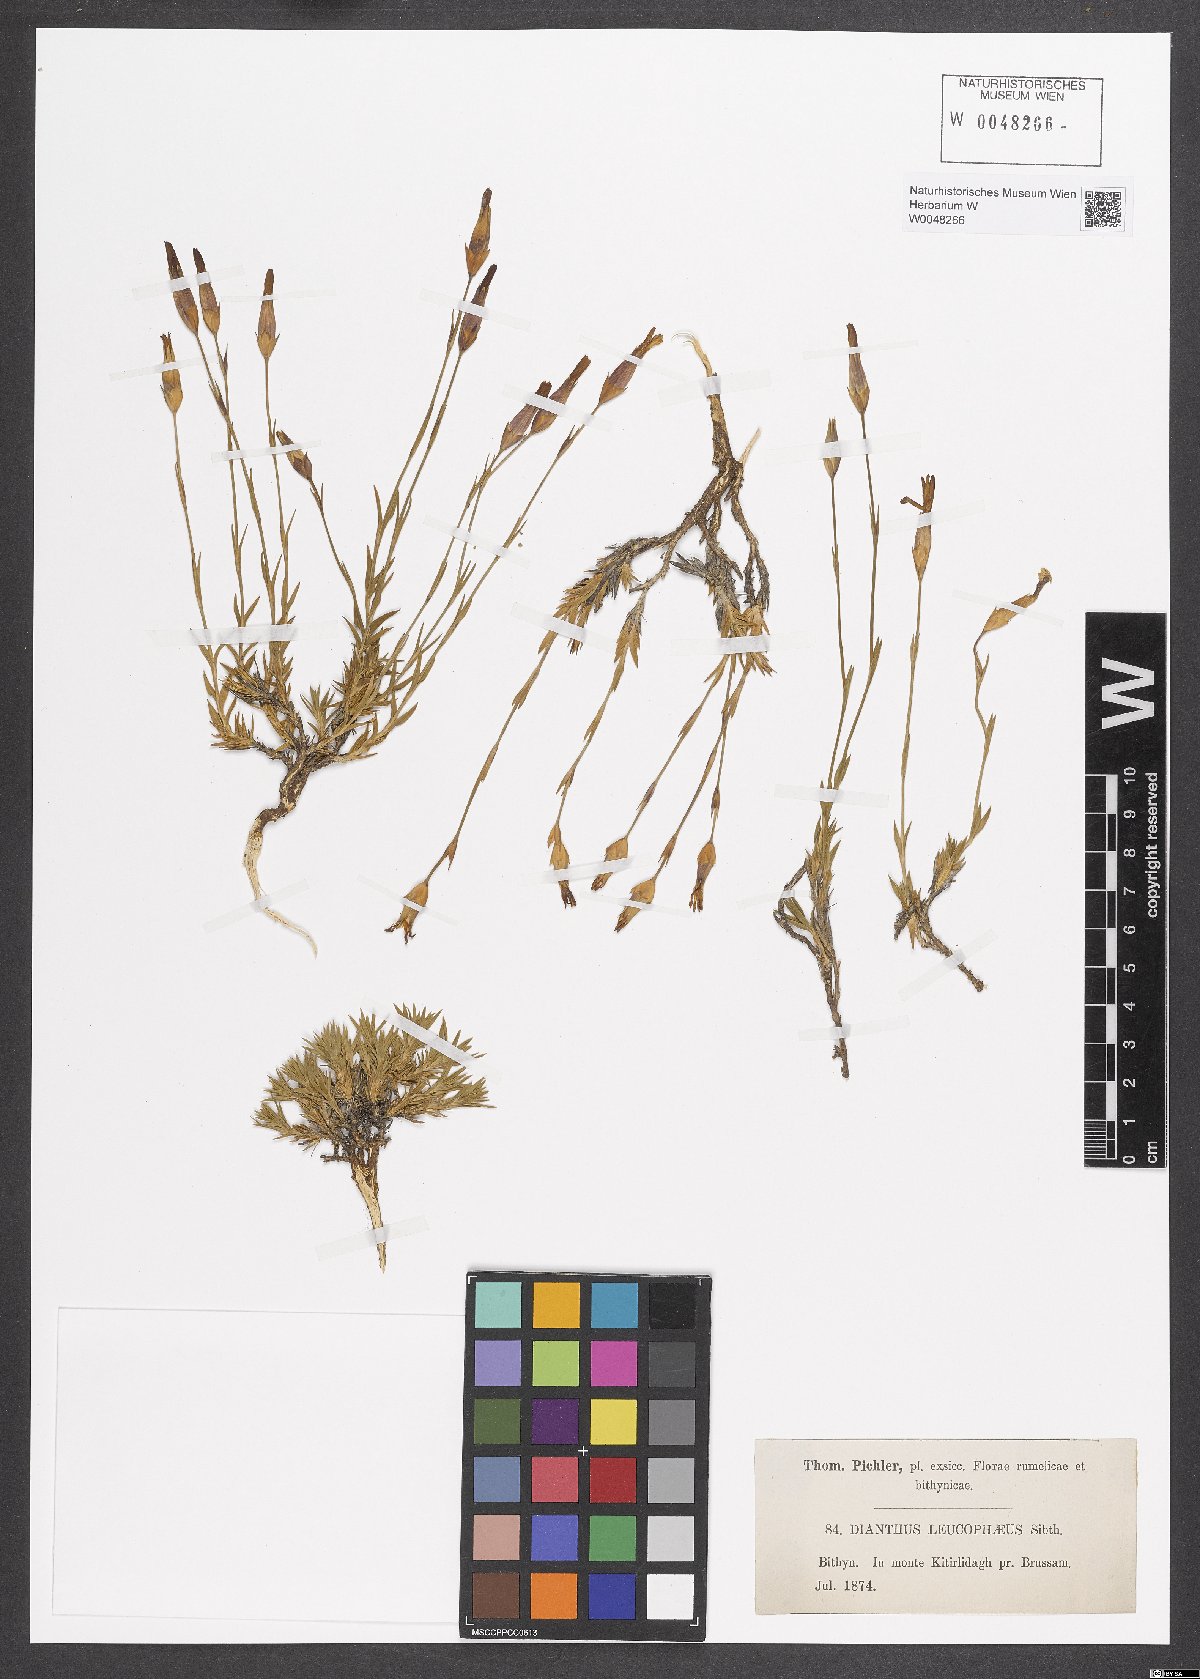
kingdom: Plantae
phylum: Tracheophyta
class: Magnoliopsida
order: Caryophyllales
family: Caryophyllaceae
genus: Dianthus
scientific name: Dianthus leucophaeus
